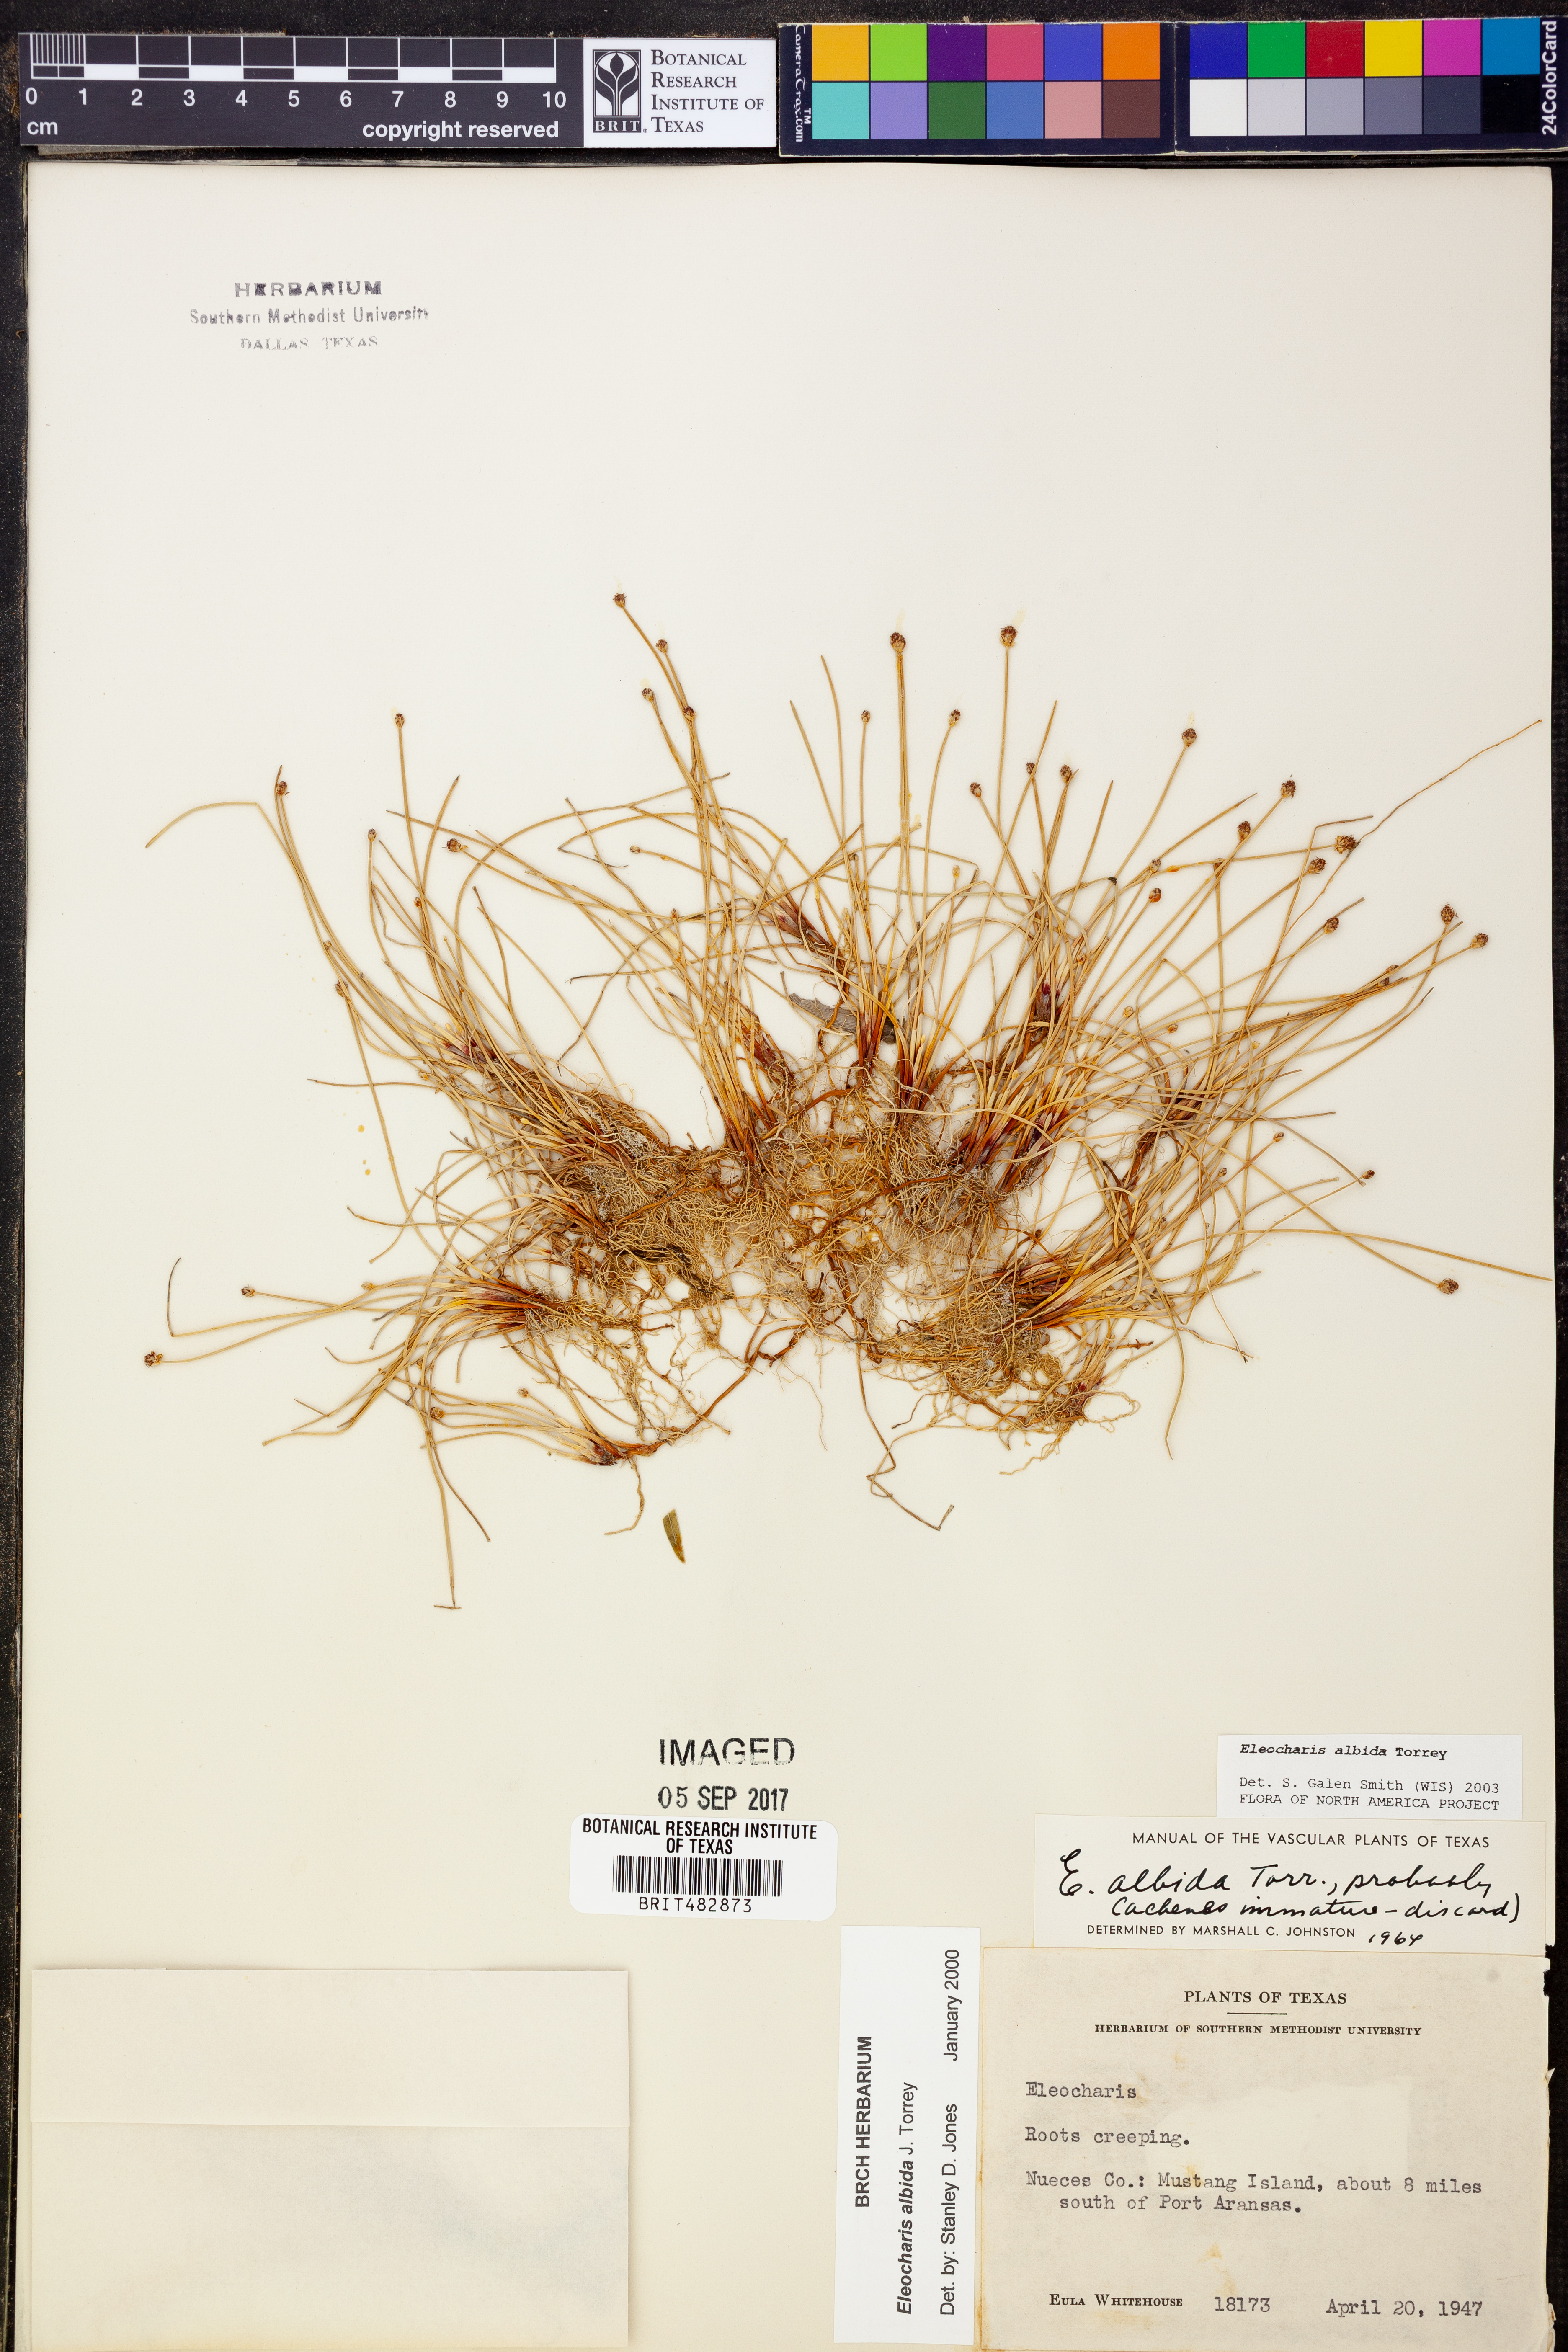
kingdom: Plantae
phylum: Tracheophyta
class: Liliopsida
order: Poales
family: Cyperaceae
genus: Eleocharis
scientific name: Eleocharis albida
